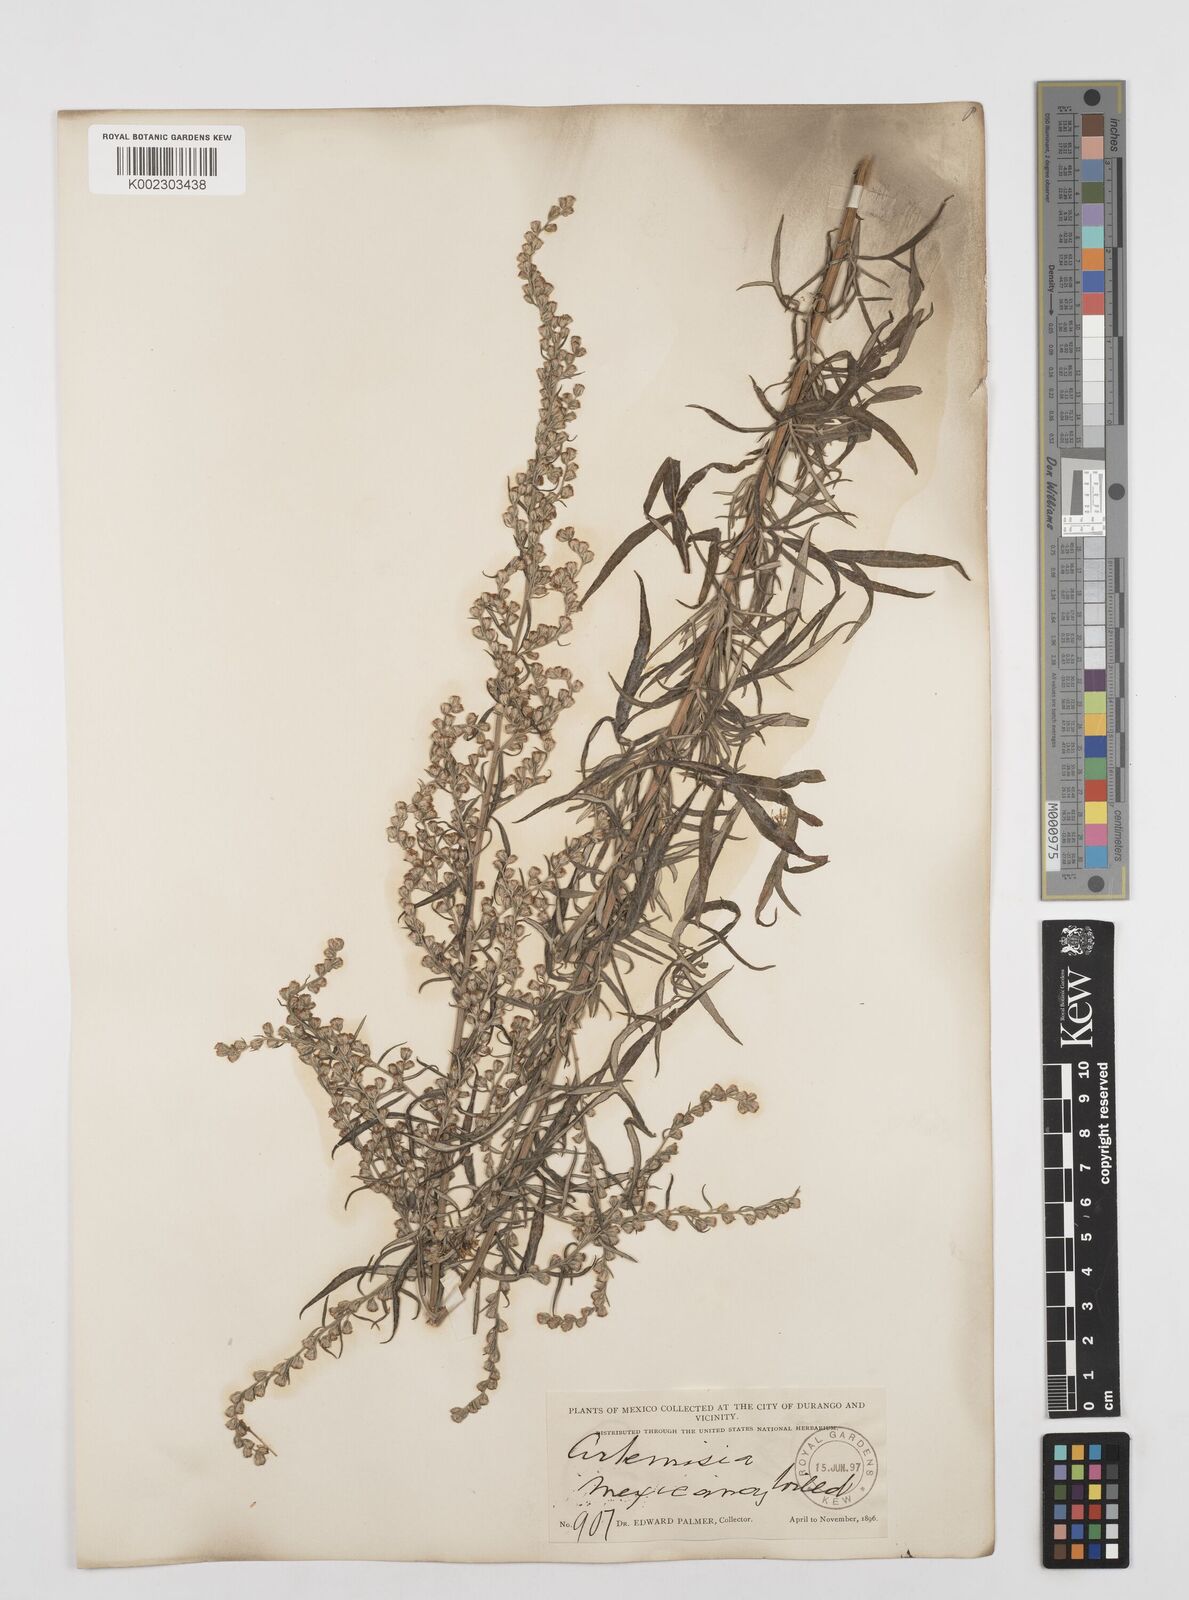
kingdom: Plantae
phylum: Tracheophyta
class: Magnoliopsida
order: Asterales
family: Asteraceae
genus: Artemisia
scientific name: Artemisia ludoviciana
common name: Western mugwort
